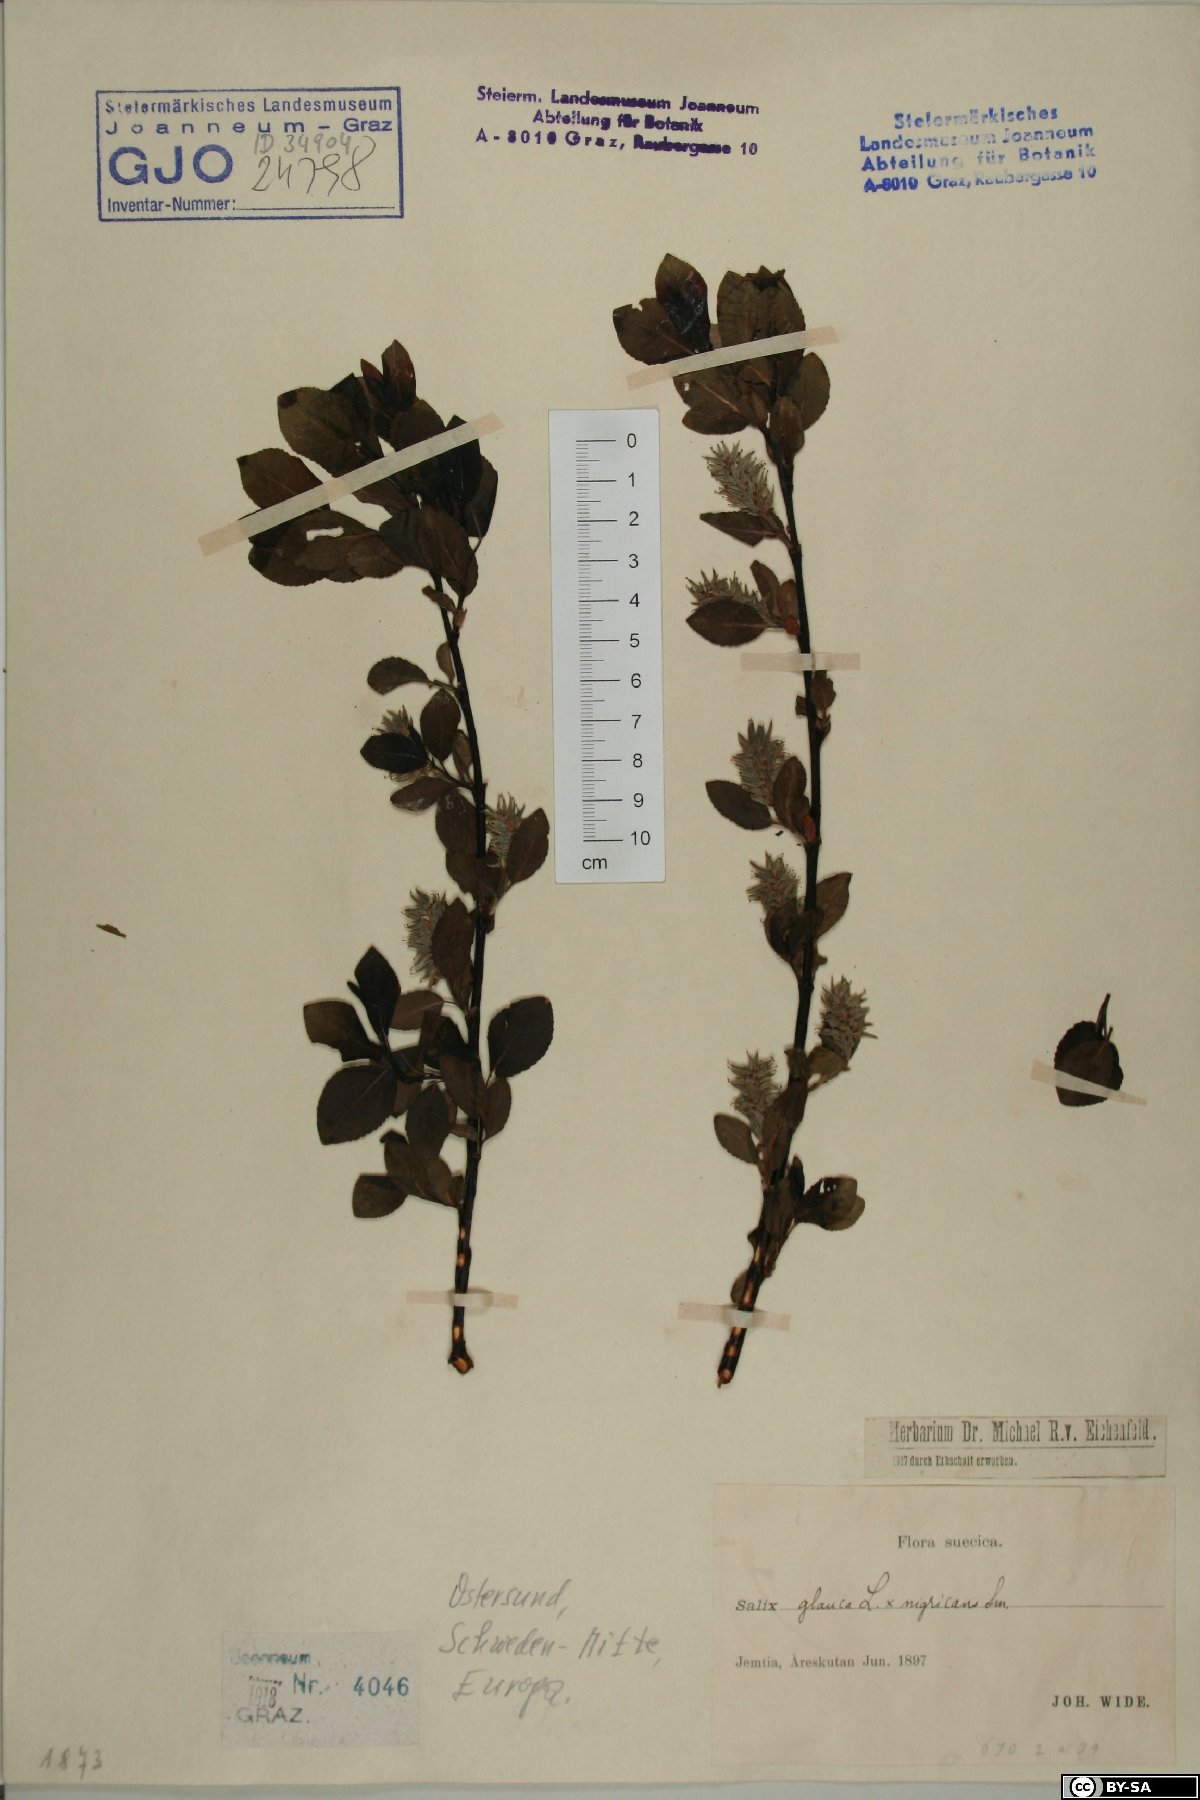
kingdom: Plantae
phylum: Tracheophyta
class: Magnoliopsida
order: Malpighiales
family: Salicaceae
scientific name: Salicaceae
